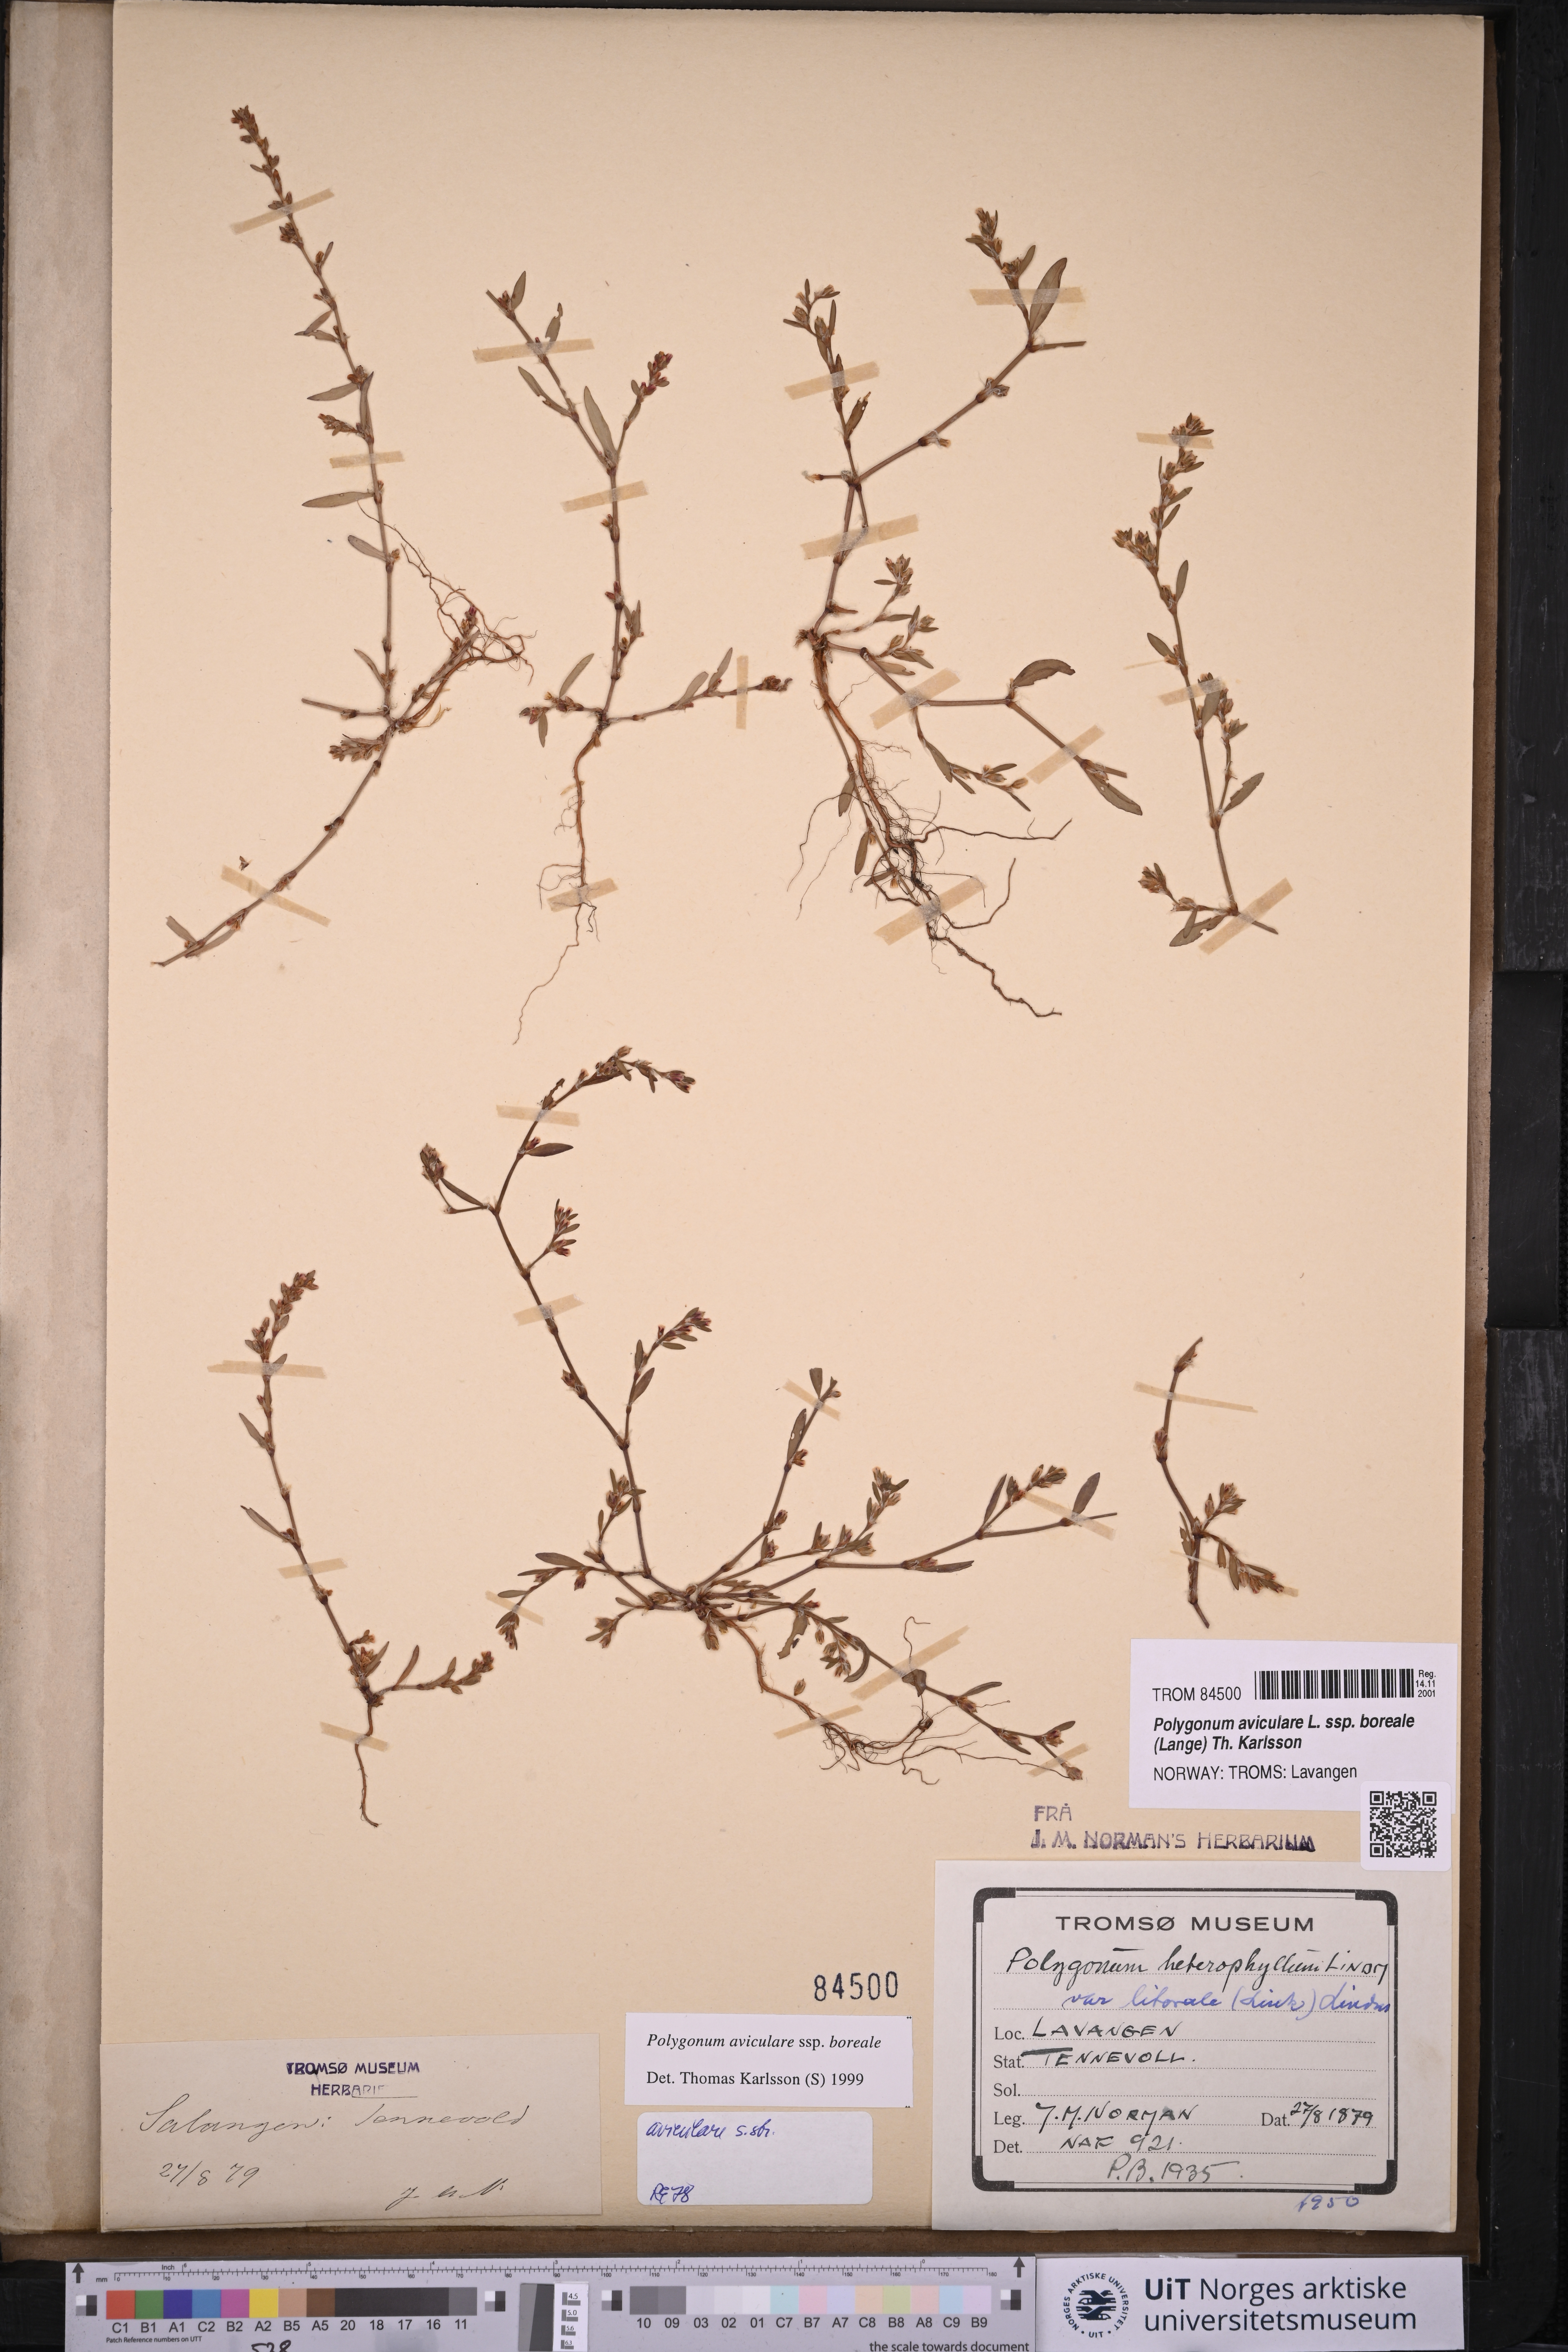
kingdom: Plantae
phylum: Tracheophyta
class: Magnoliopsida
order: Caryophyllales
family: Polygonaceae
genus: Polygonum
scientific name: Polygonum boreale
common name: Northern knotgrass
